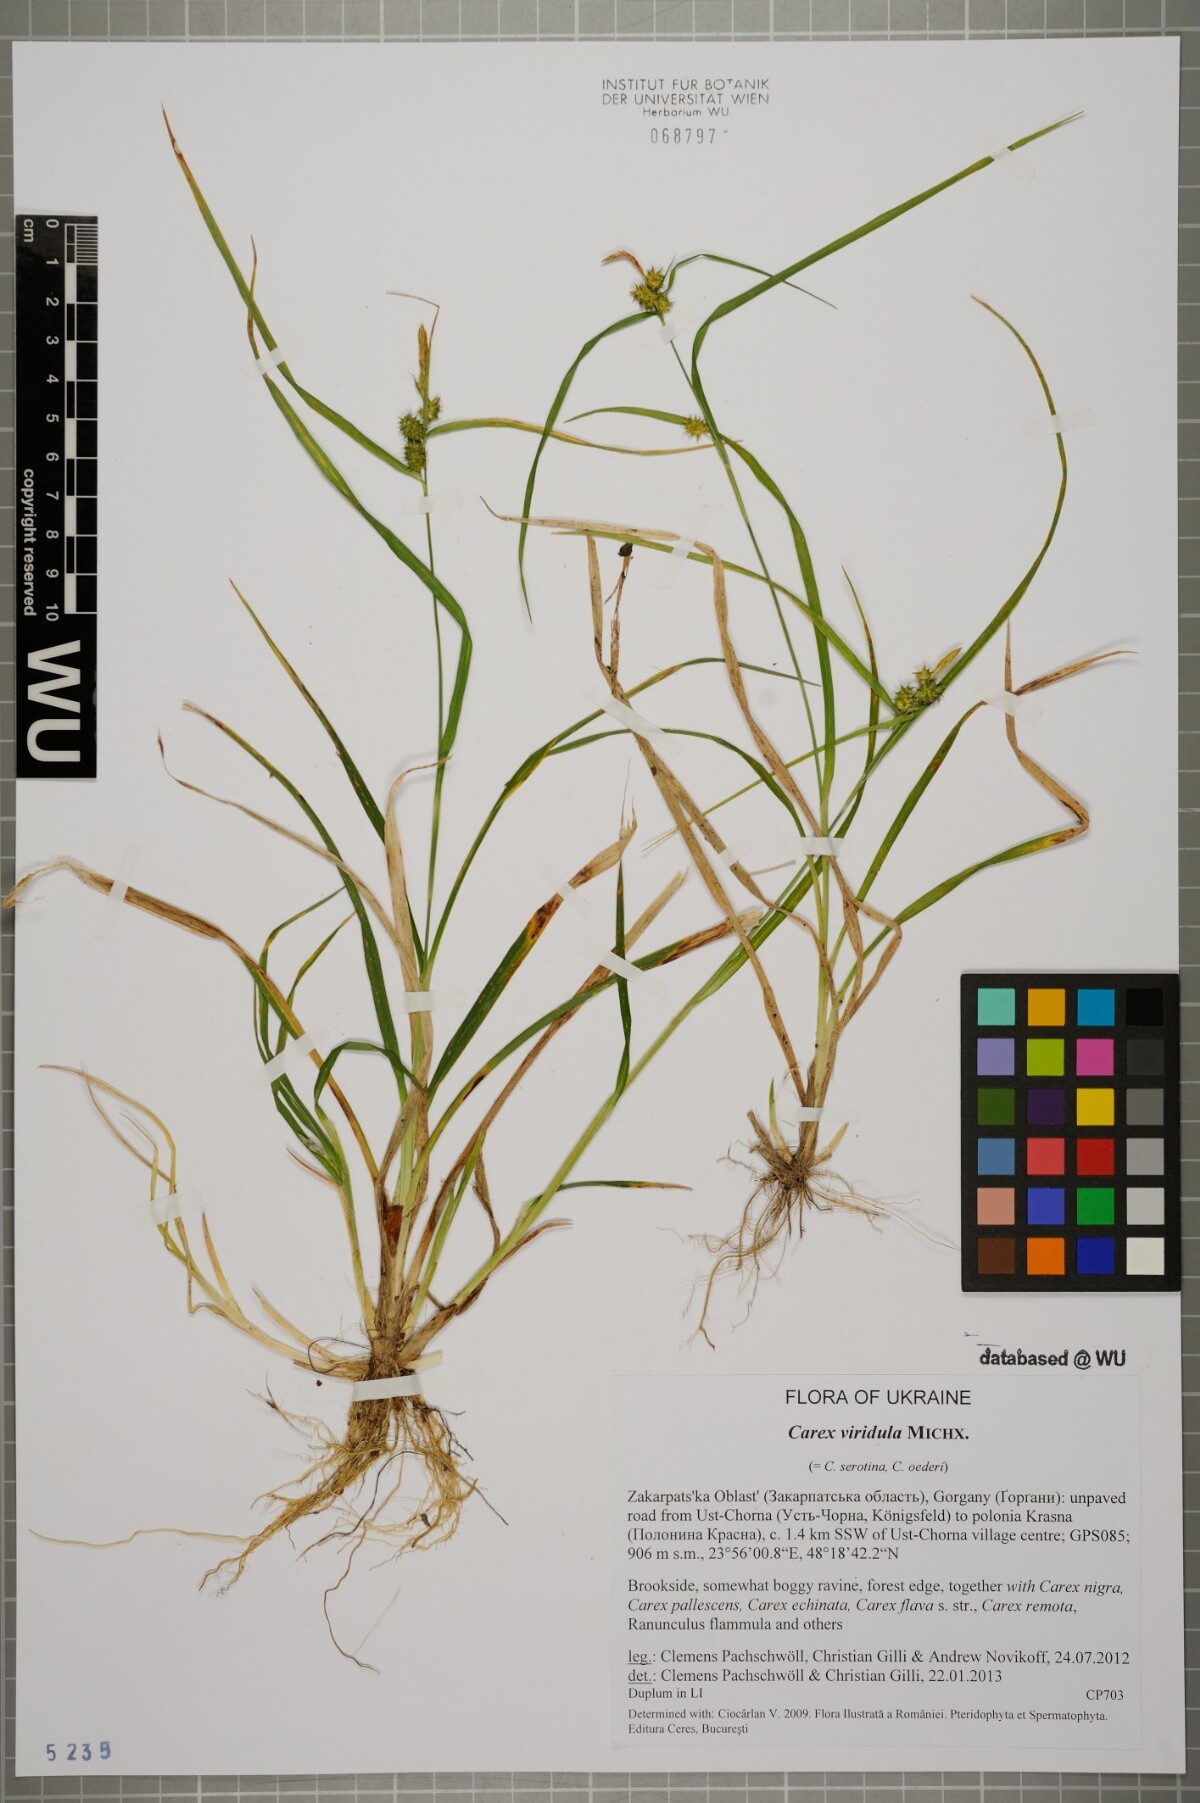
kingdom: Plantae
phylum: Tracheophyta
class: Liliopsida
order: Poales
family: Cyperaceae
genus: Carex
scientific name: Carex oederi
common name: Common & small-fruited yellow-sedge
